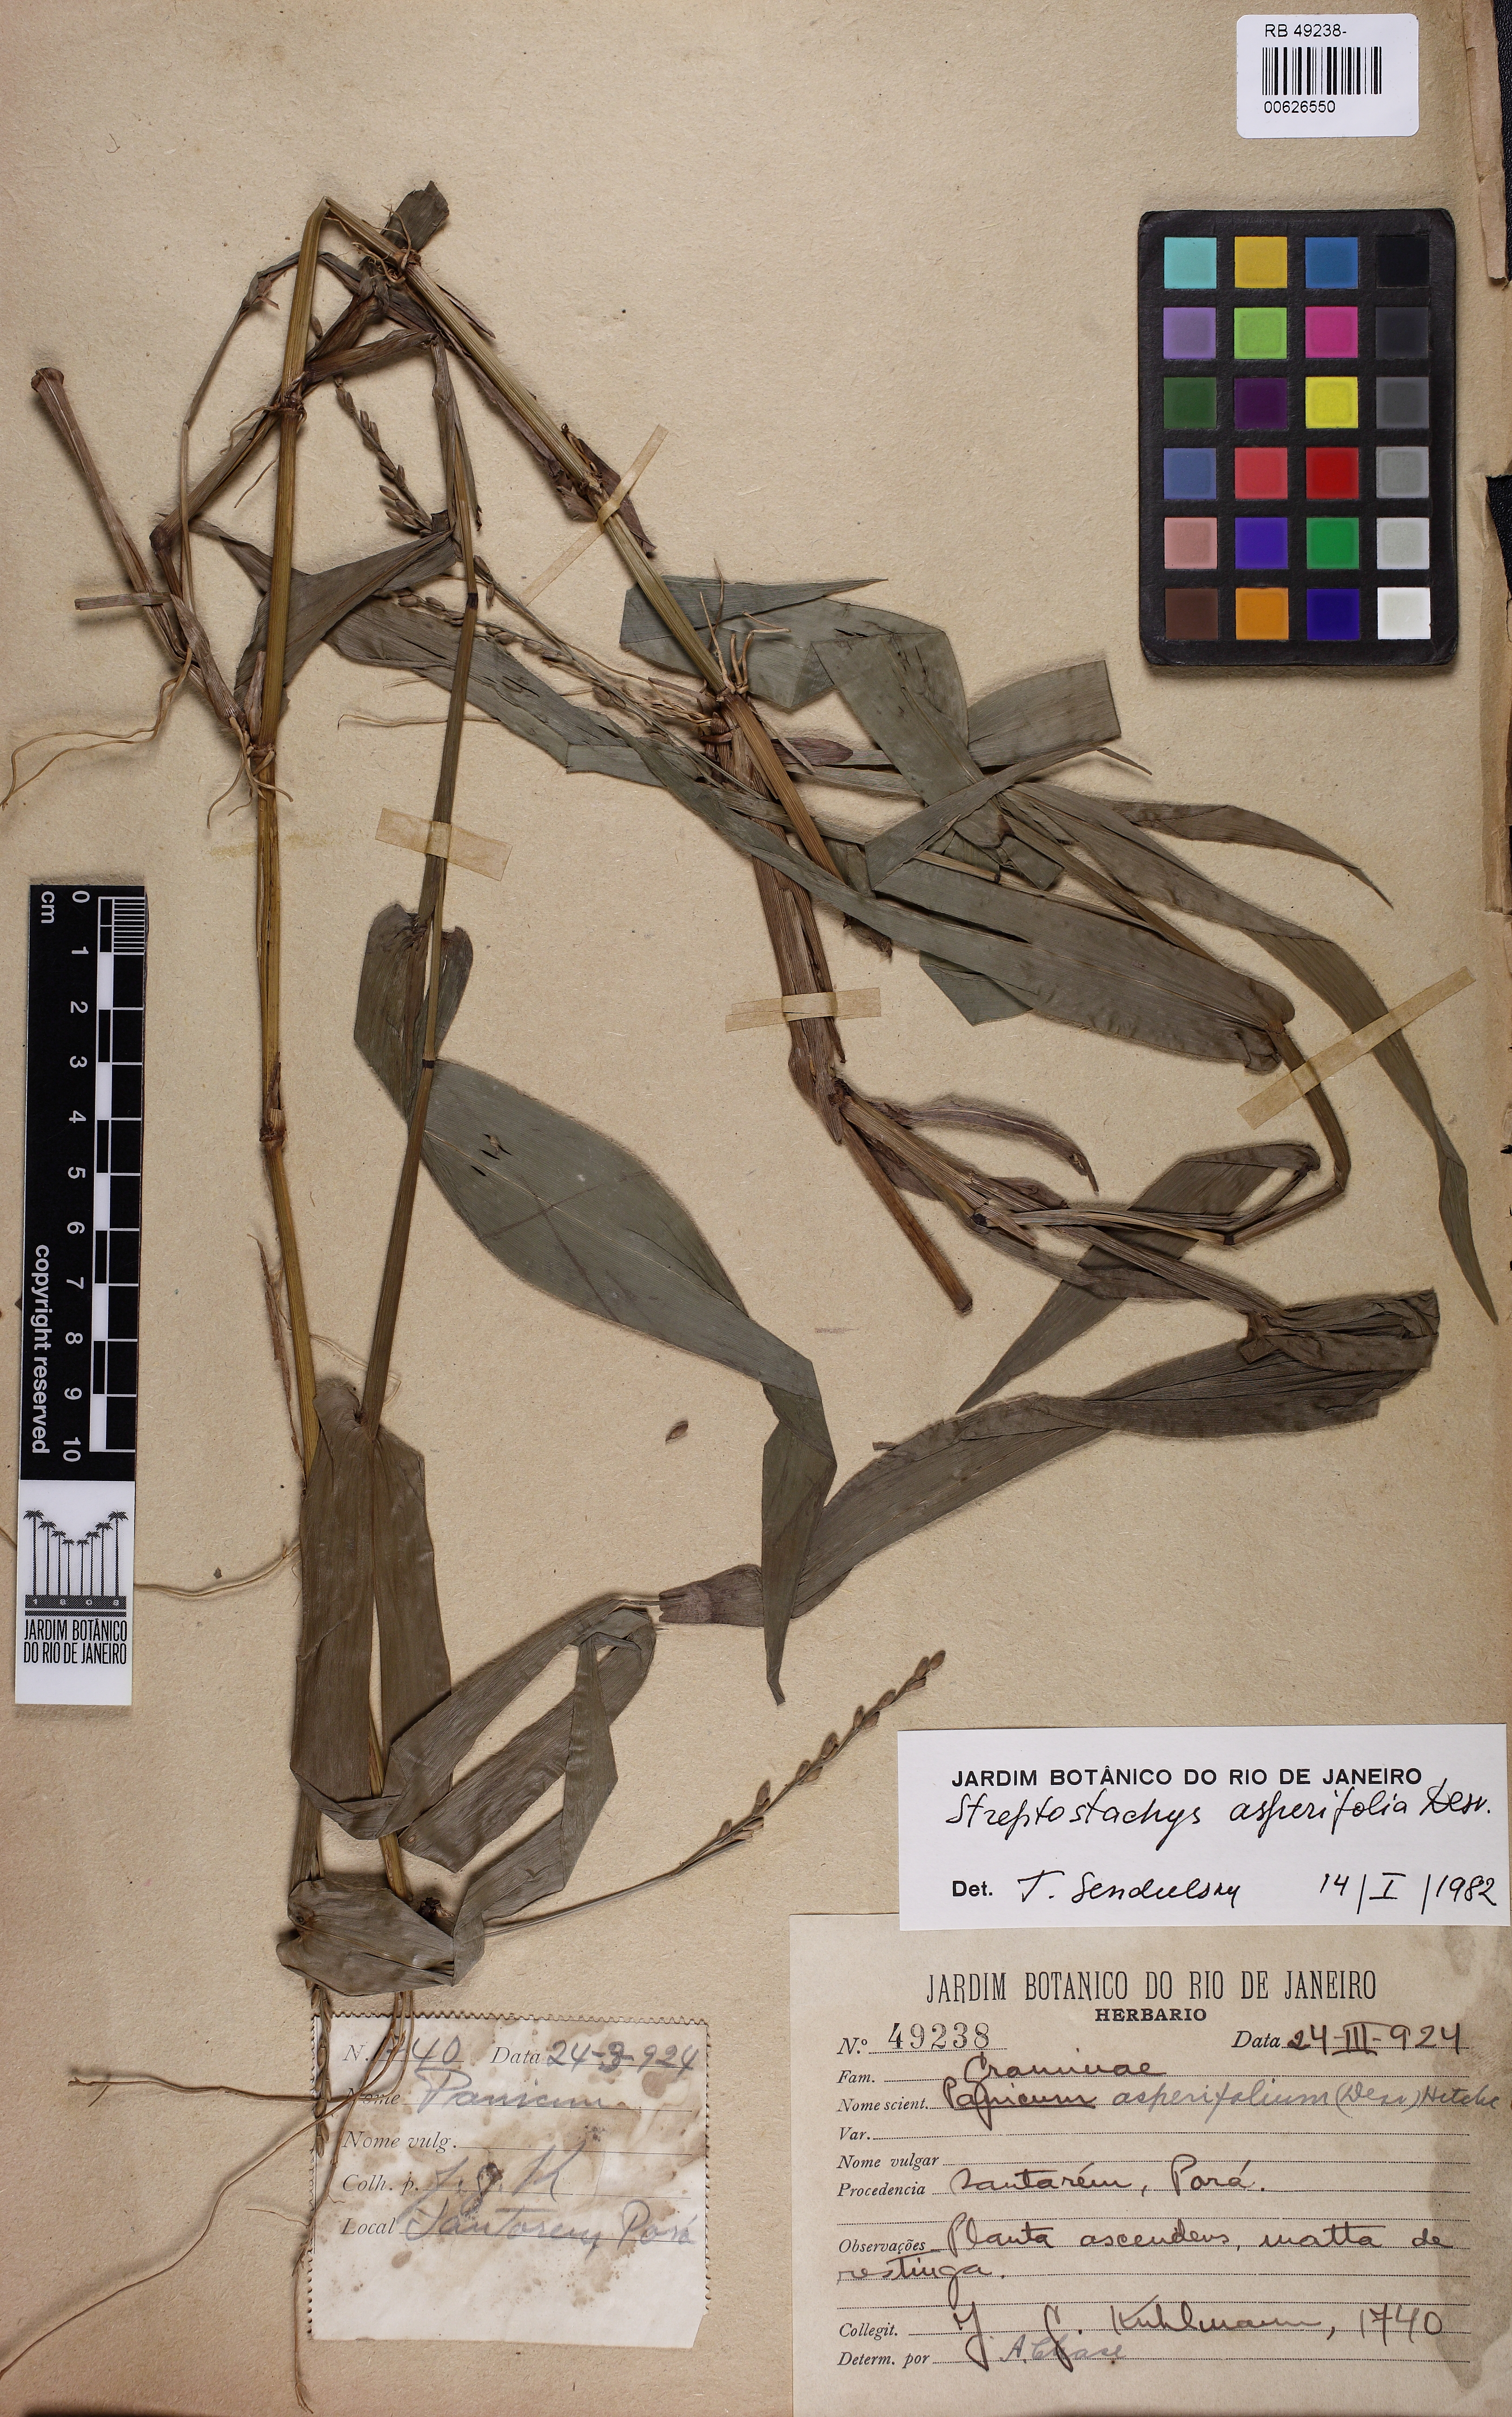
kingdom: Plantae
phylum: Tracheophyta
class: Liliopsida
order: Poales
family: Poaceae
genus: Streptostachys
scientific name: Streptostachys asperifolia
